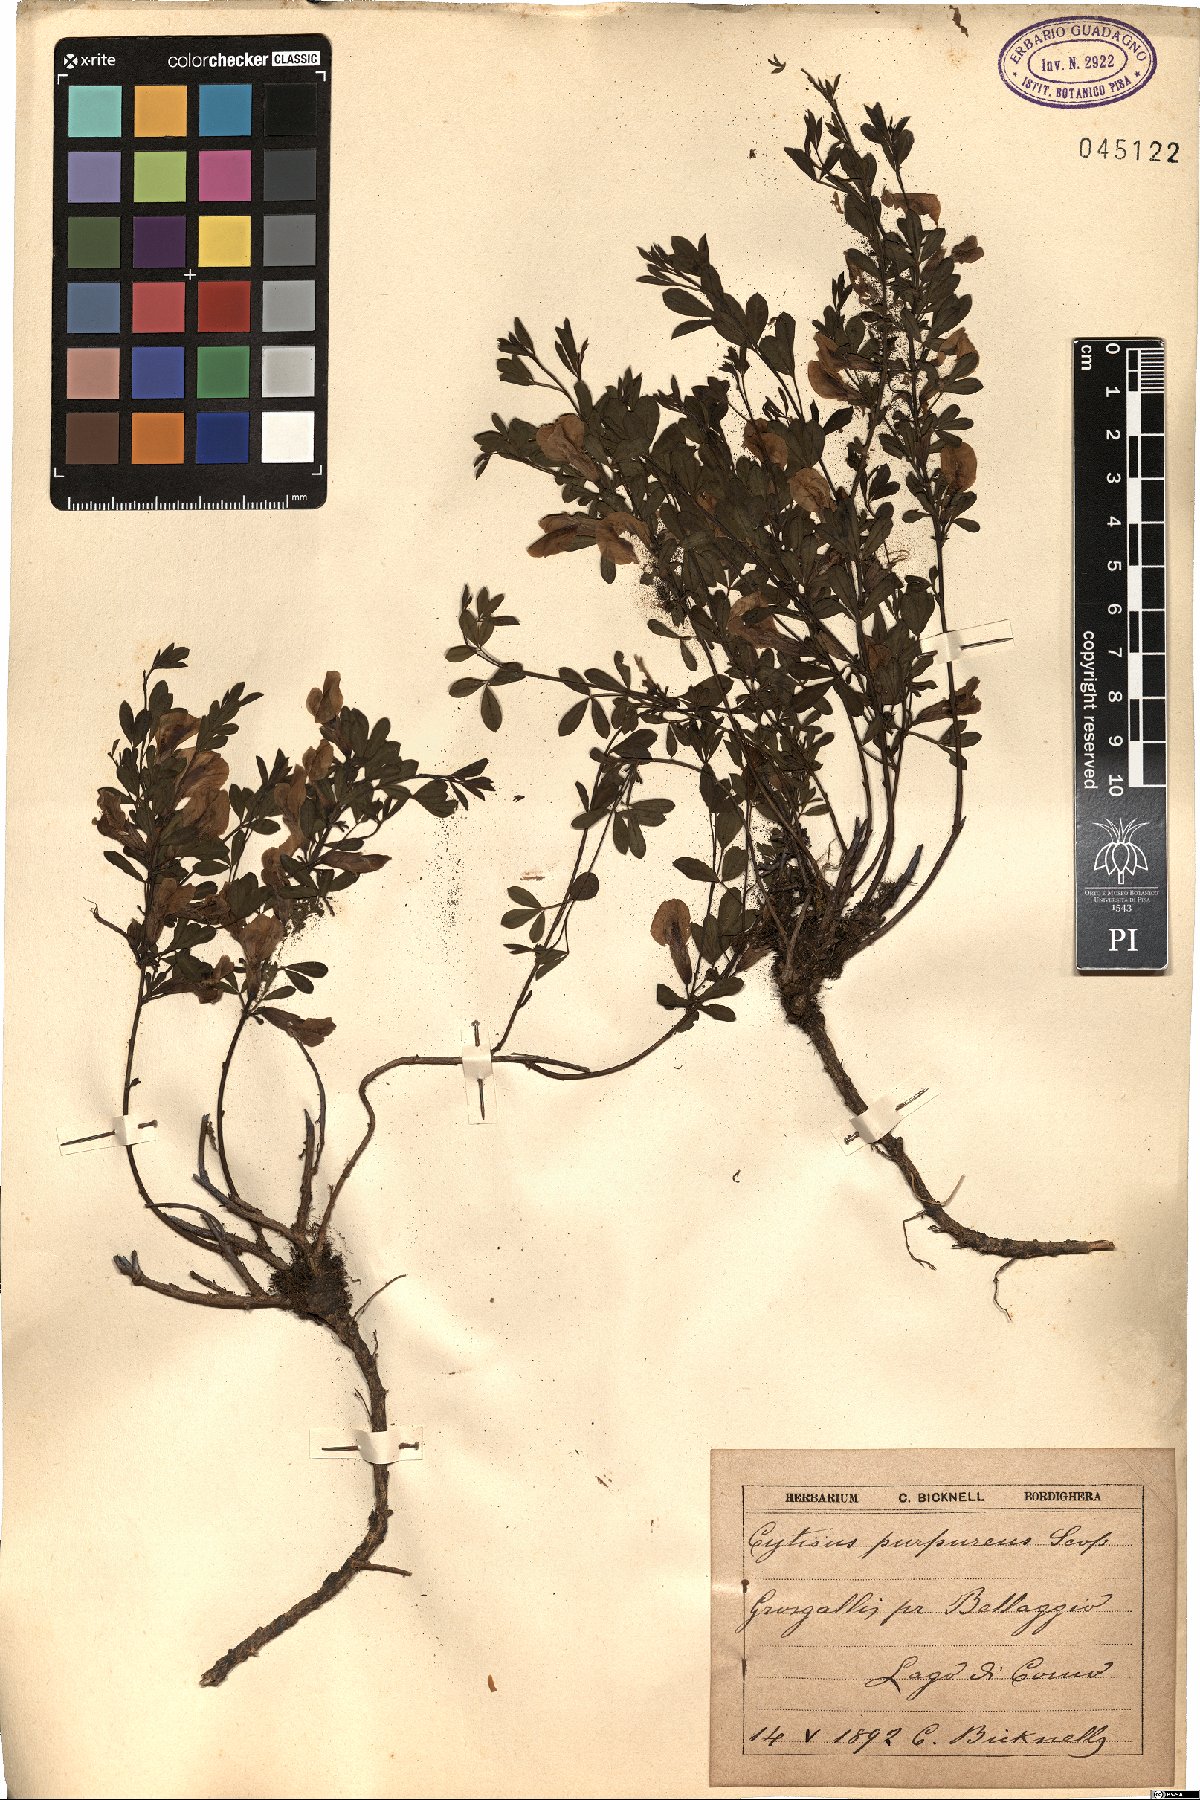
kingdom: Plantae
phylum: Tracheophyta
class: Magnoliopsida
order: Fabales
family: Fabaceae
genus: Chamaecytisus
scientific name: Chamaecytisus purpureus
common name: Purple broom
